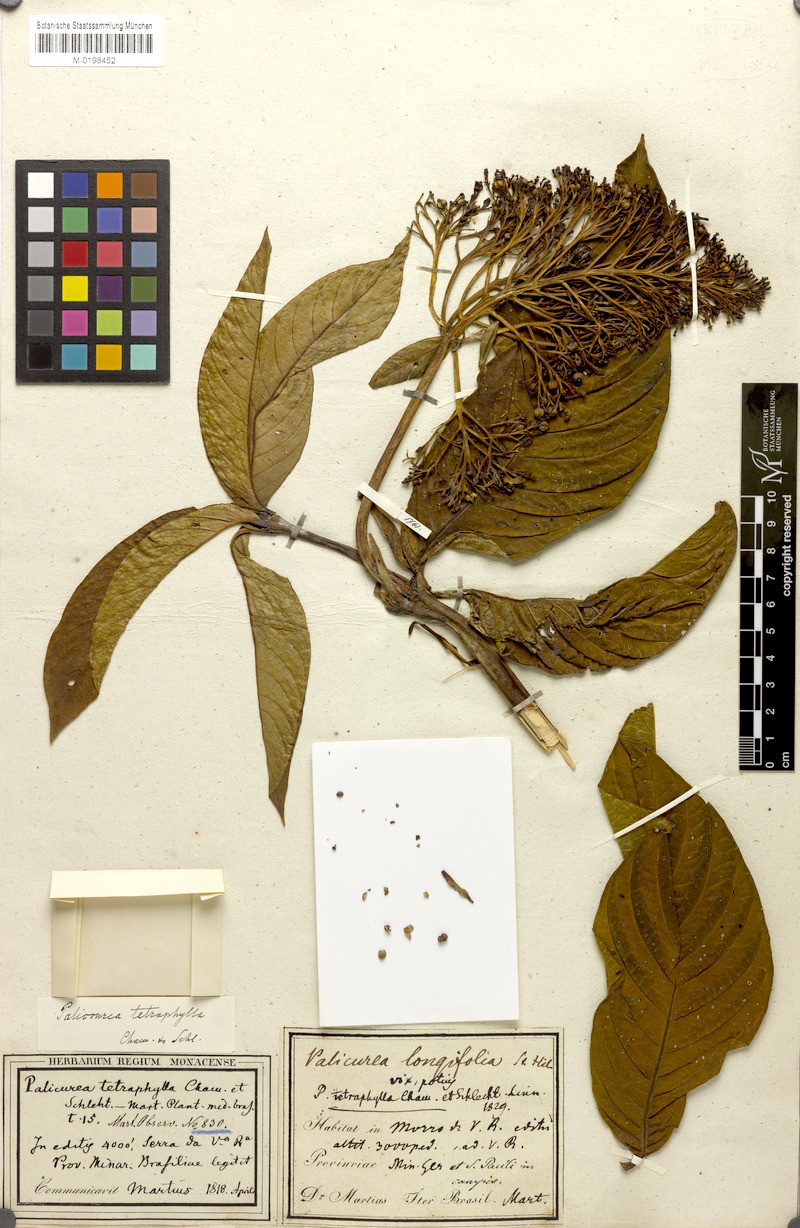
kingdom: Plantae
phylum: Tracheophyta
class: Magnoliopsida
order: Gentianales
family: Rubiaceae
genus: Palicourea
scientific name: Palicourea tetraphylla
